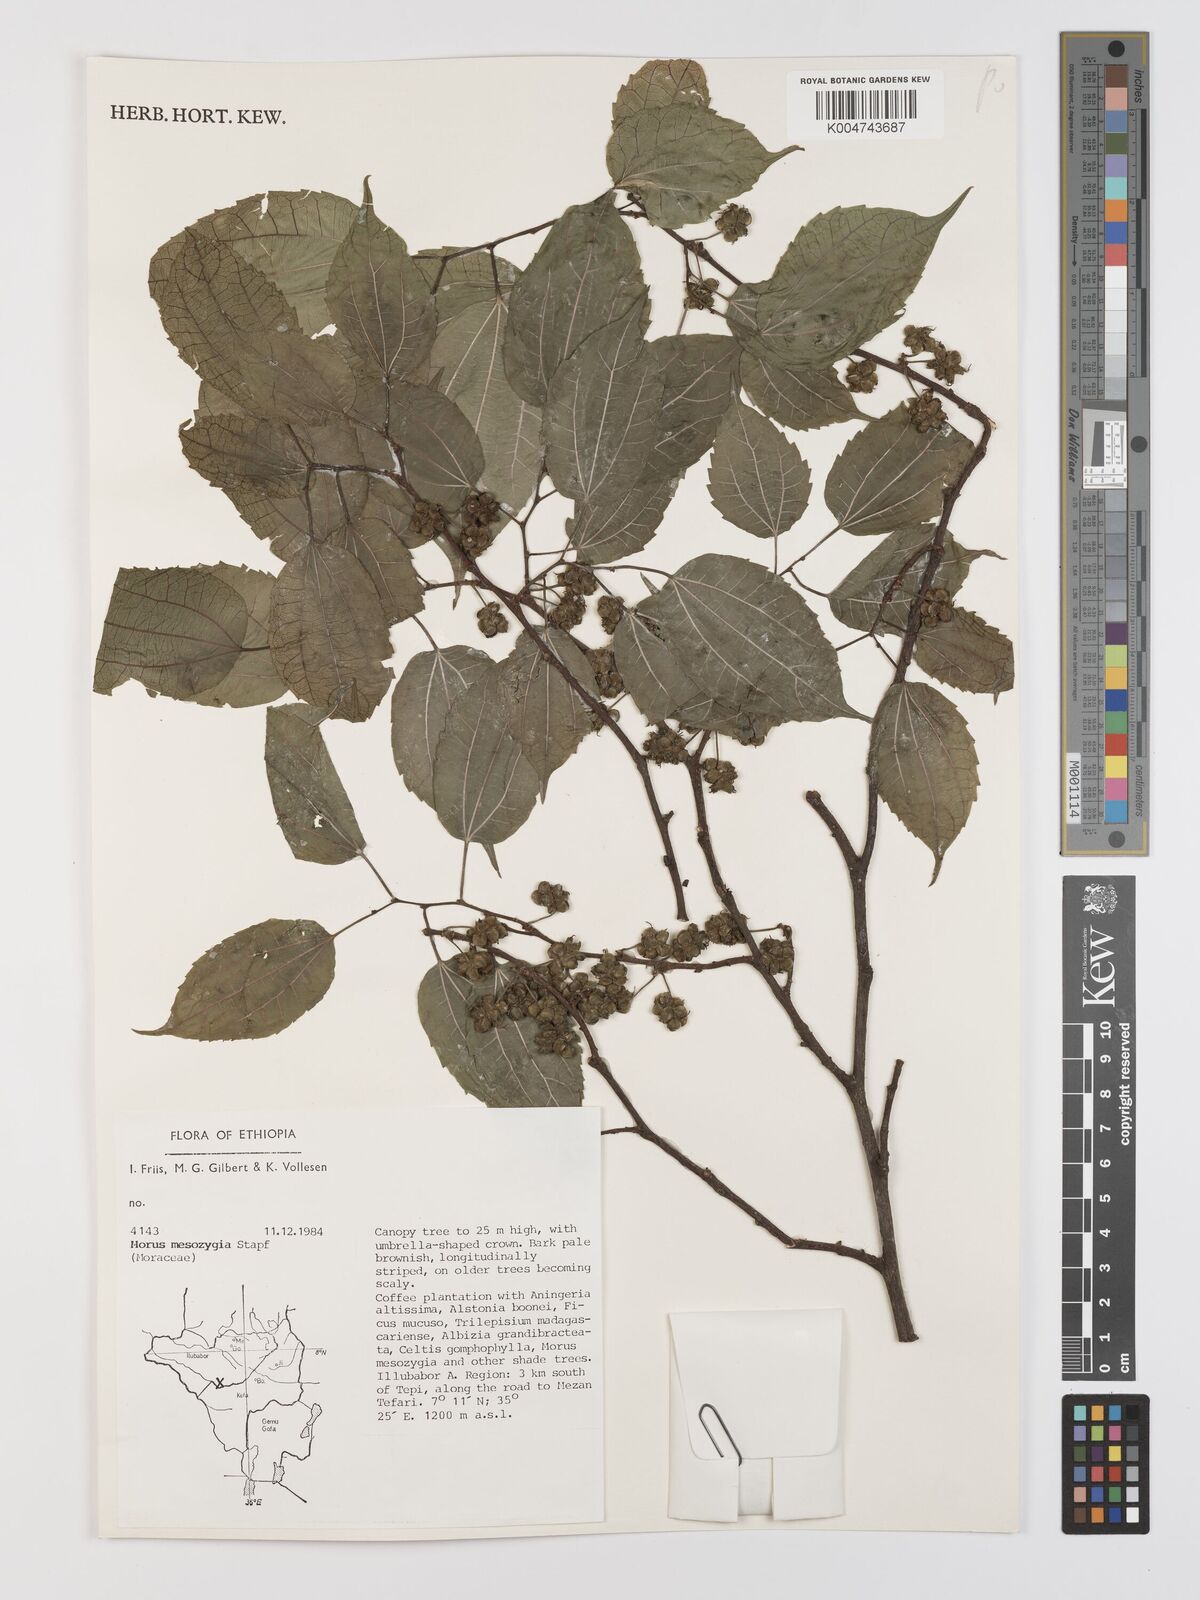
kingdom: Plantae
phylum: Tracheophyta
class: Magnoliopsida
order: Rosales
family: Moraceae
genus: Afromorus
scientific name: Afromorus mesozygia
